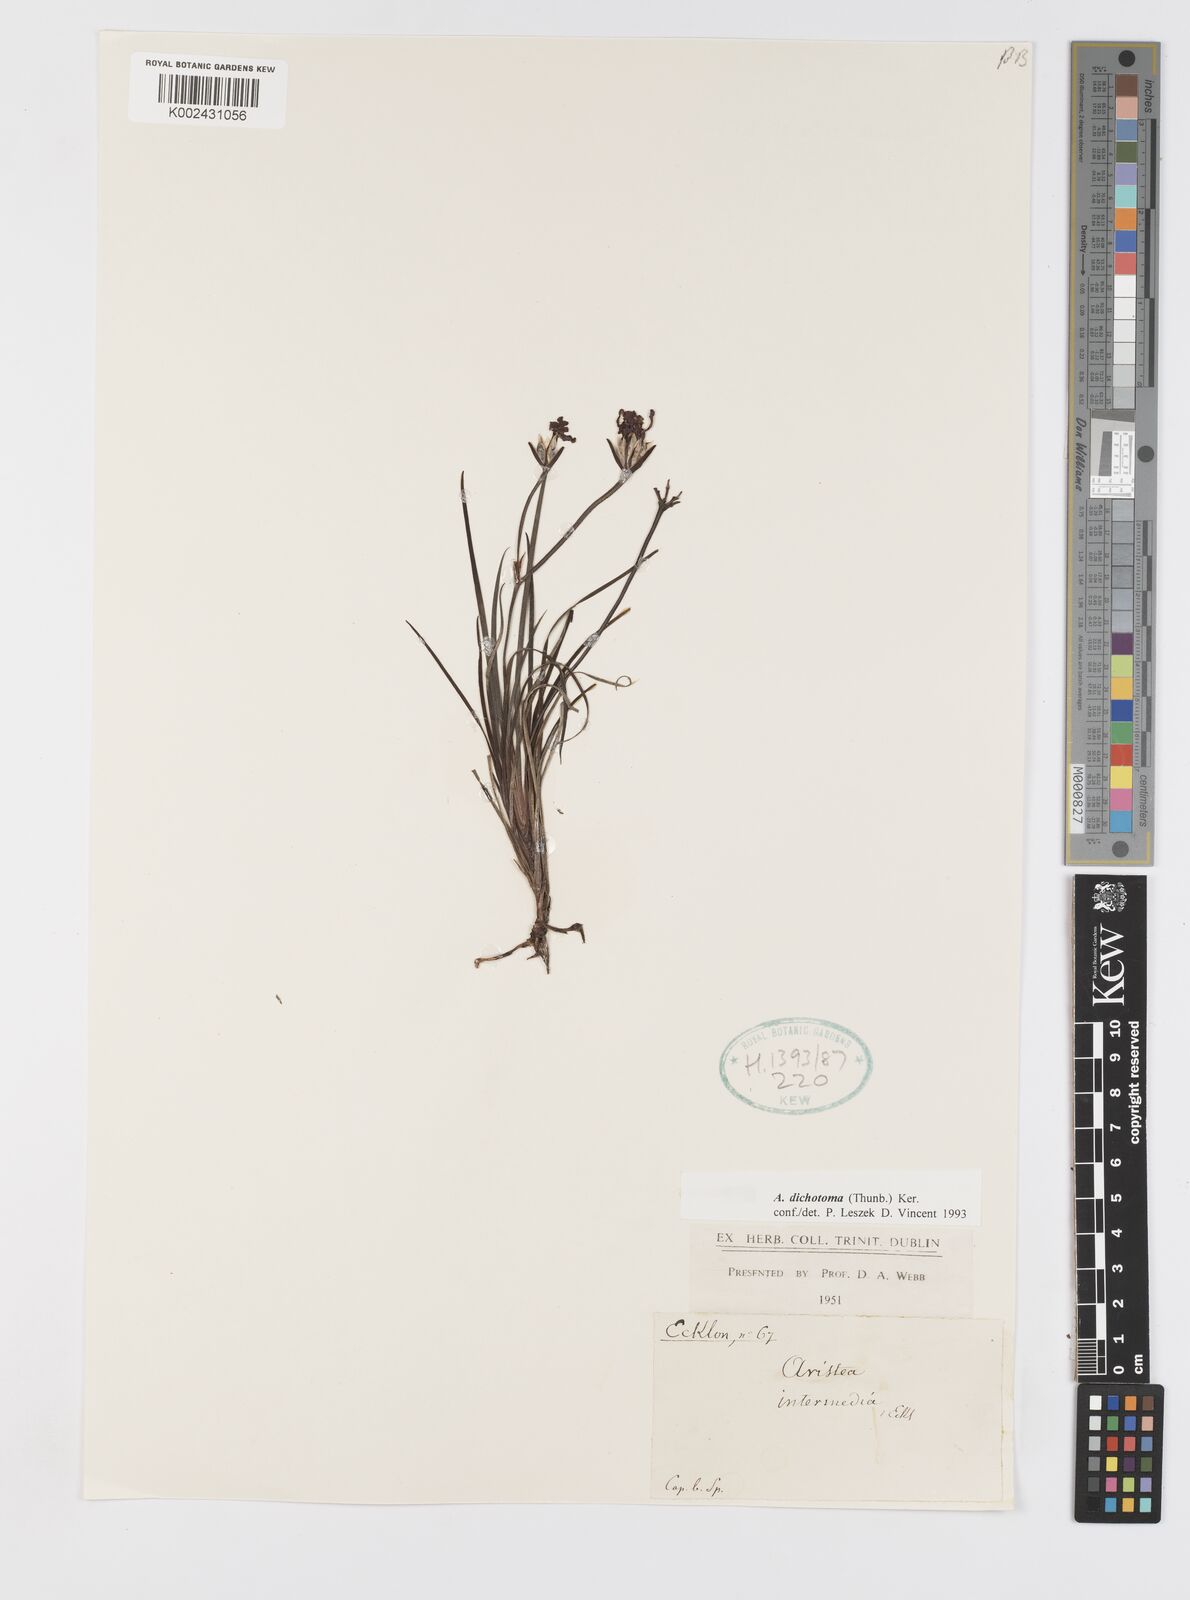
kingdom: Plantae
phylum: Tracheophyta
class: Liliopsida
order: Asparagales
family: Iridaceae
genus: Aristea
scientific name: Aristea dichotoma
